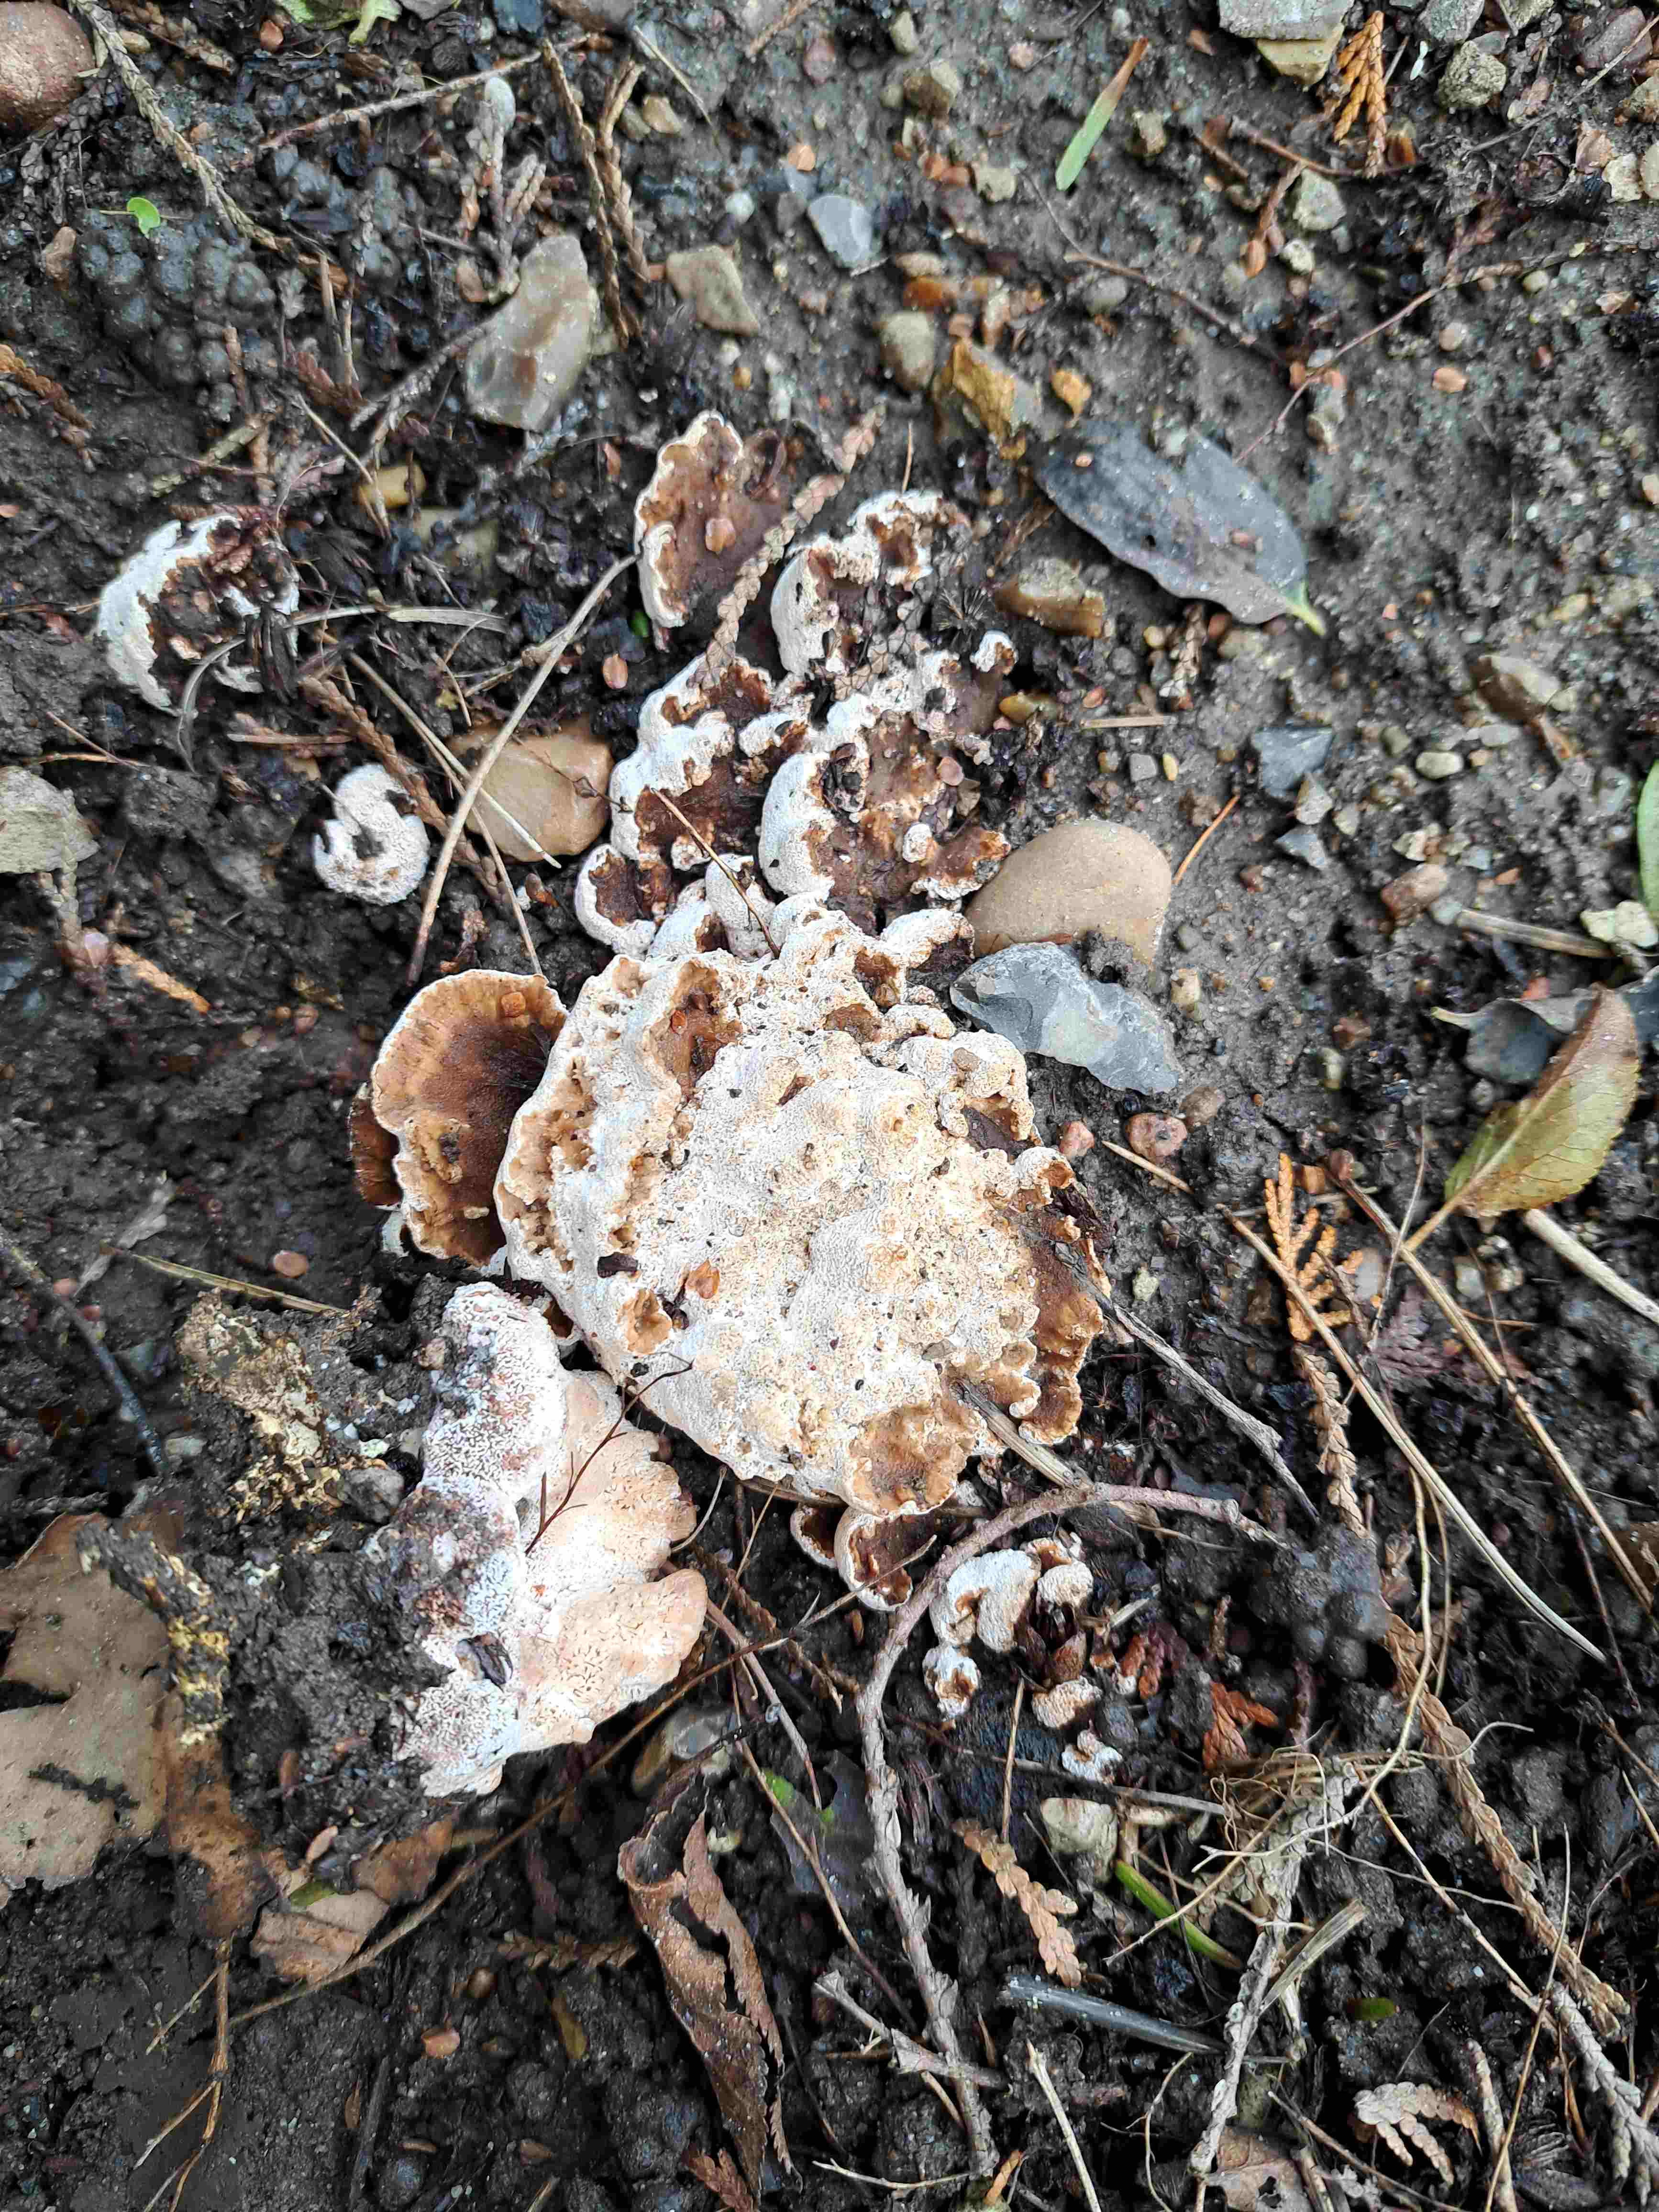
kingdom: Fungi
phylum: Basidiomycota
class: Agaricomycetes
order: Polyporales
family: Podoscyphaceae
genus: Abortiporus
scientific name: Abortiporus biennis
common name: rødmende pjalteporesvamp
